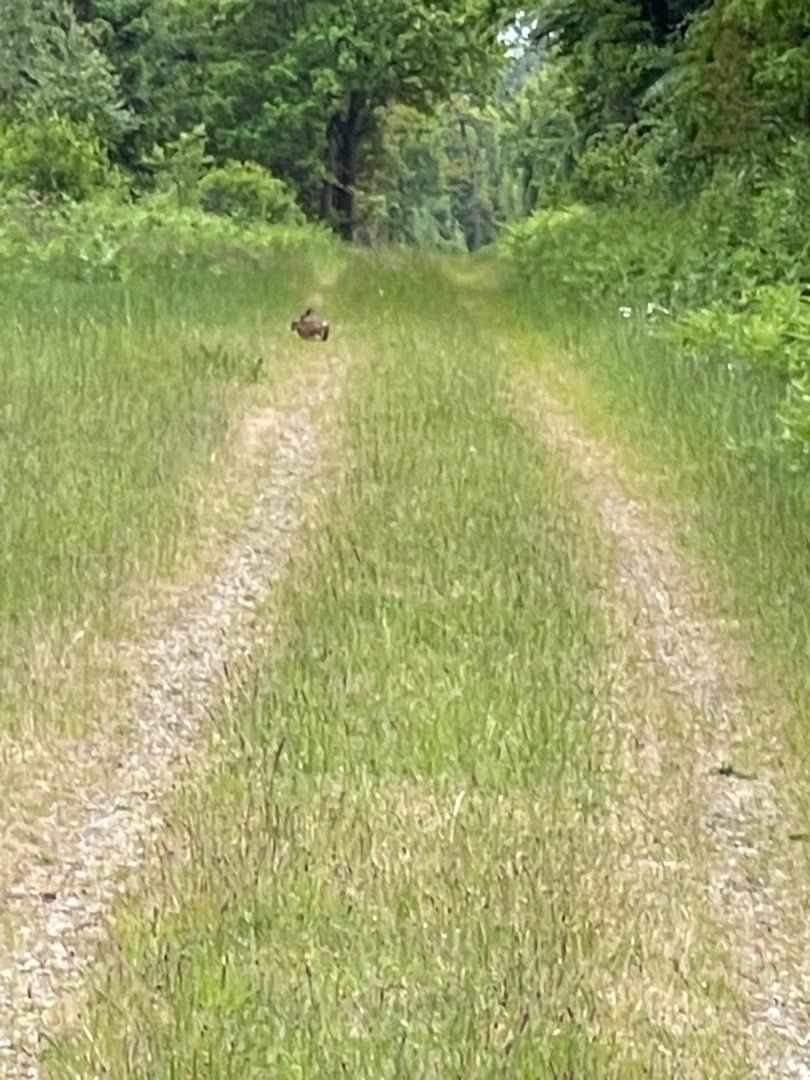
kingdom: Animalia
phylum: Chordata
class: Mammalia
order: Lagomorpha
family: Leporidae
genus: Lepus
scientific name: Lepus europaeus
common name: Hare
